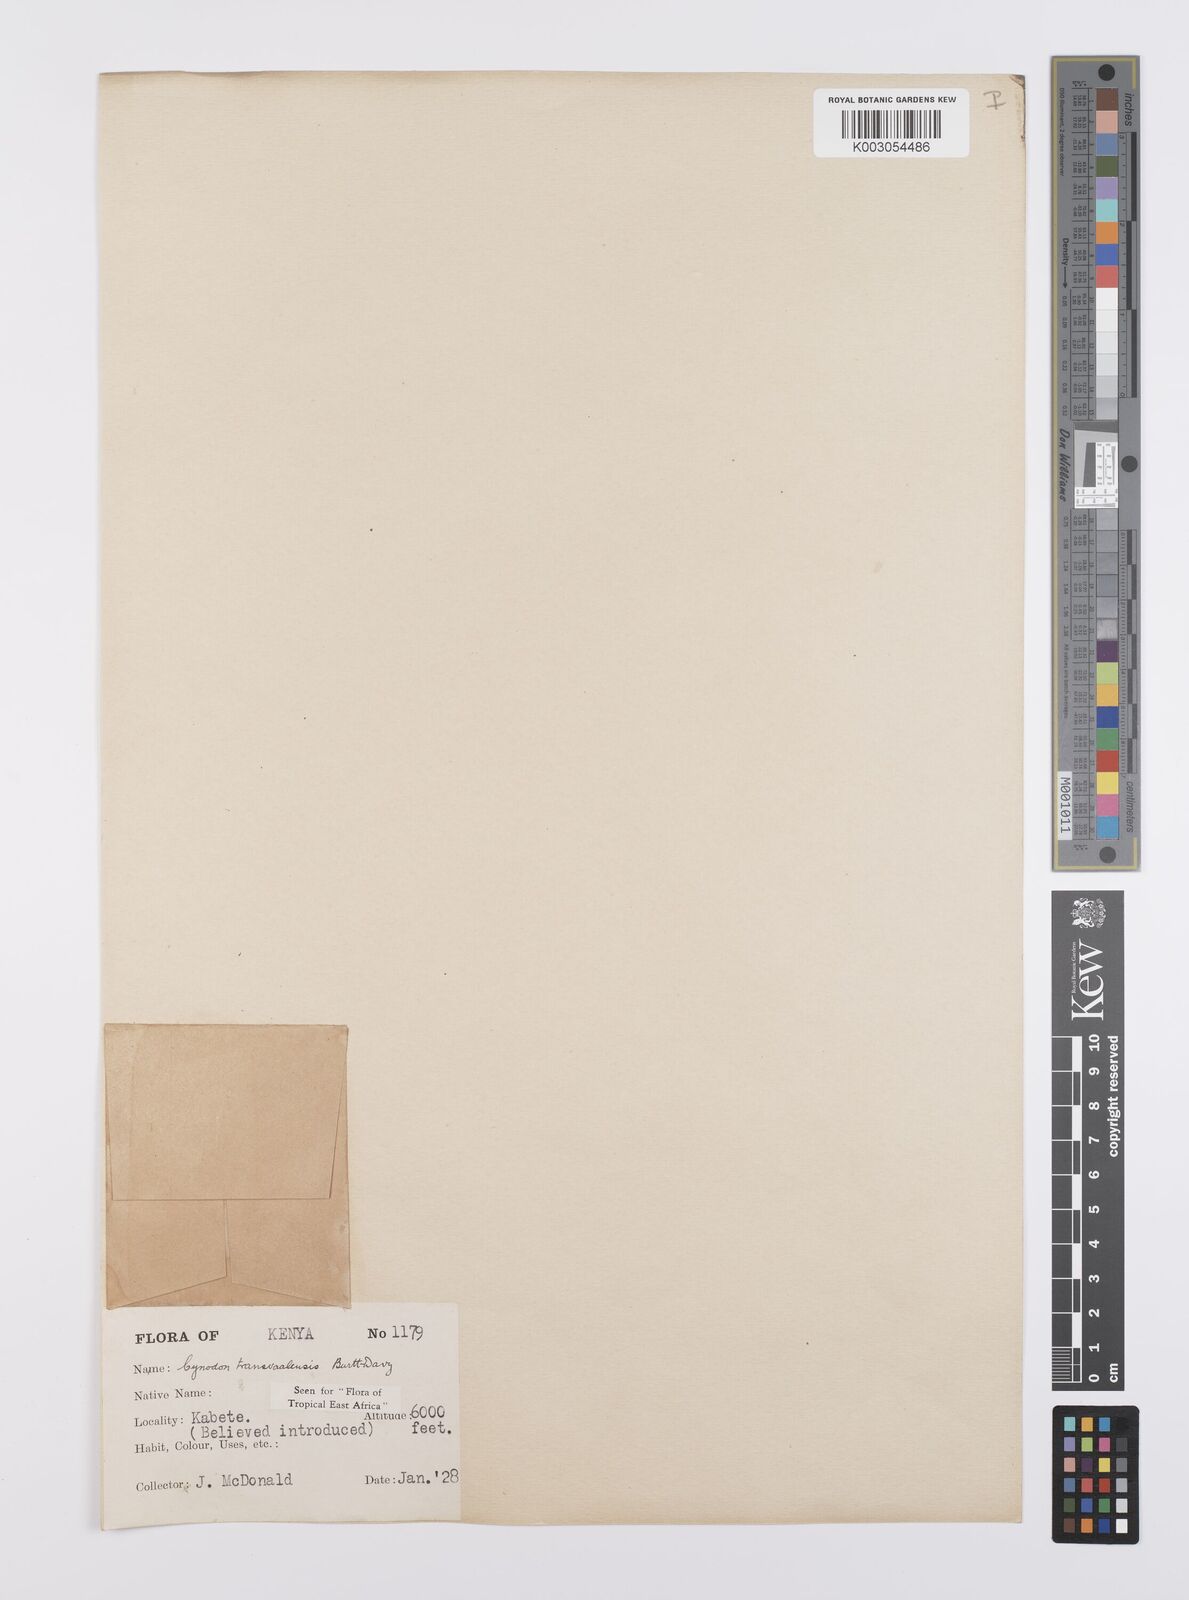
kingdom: Plantae
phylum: Tracheophyta
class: Liliopsida
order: Poales
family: Poaceae
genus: Cynodon
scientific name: Cynodon transvaalensis
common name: African bermuda grass
